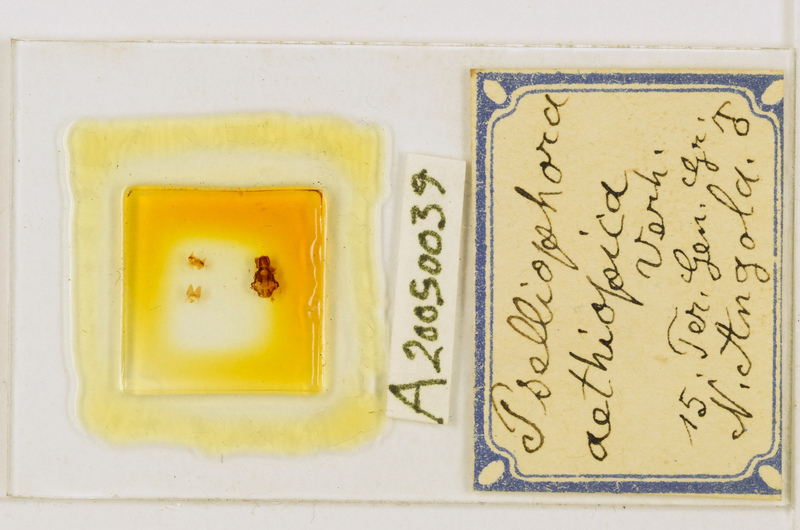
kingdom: Animalia
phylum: Arthropoda
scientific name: Arthropoda
